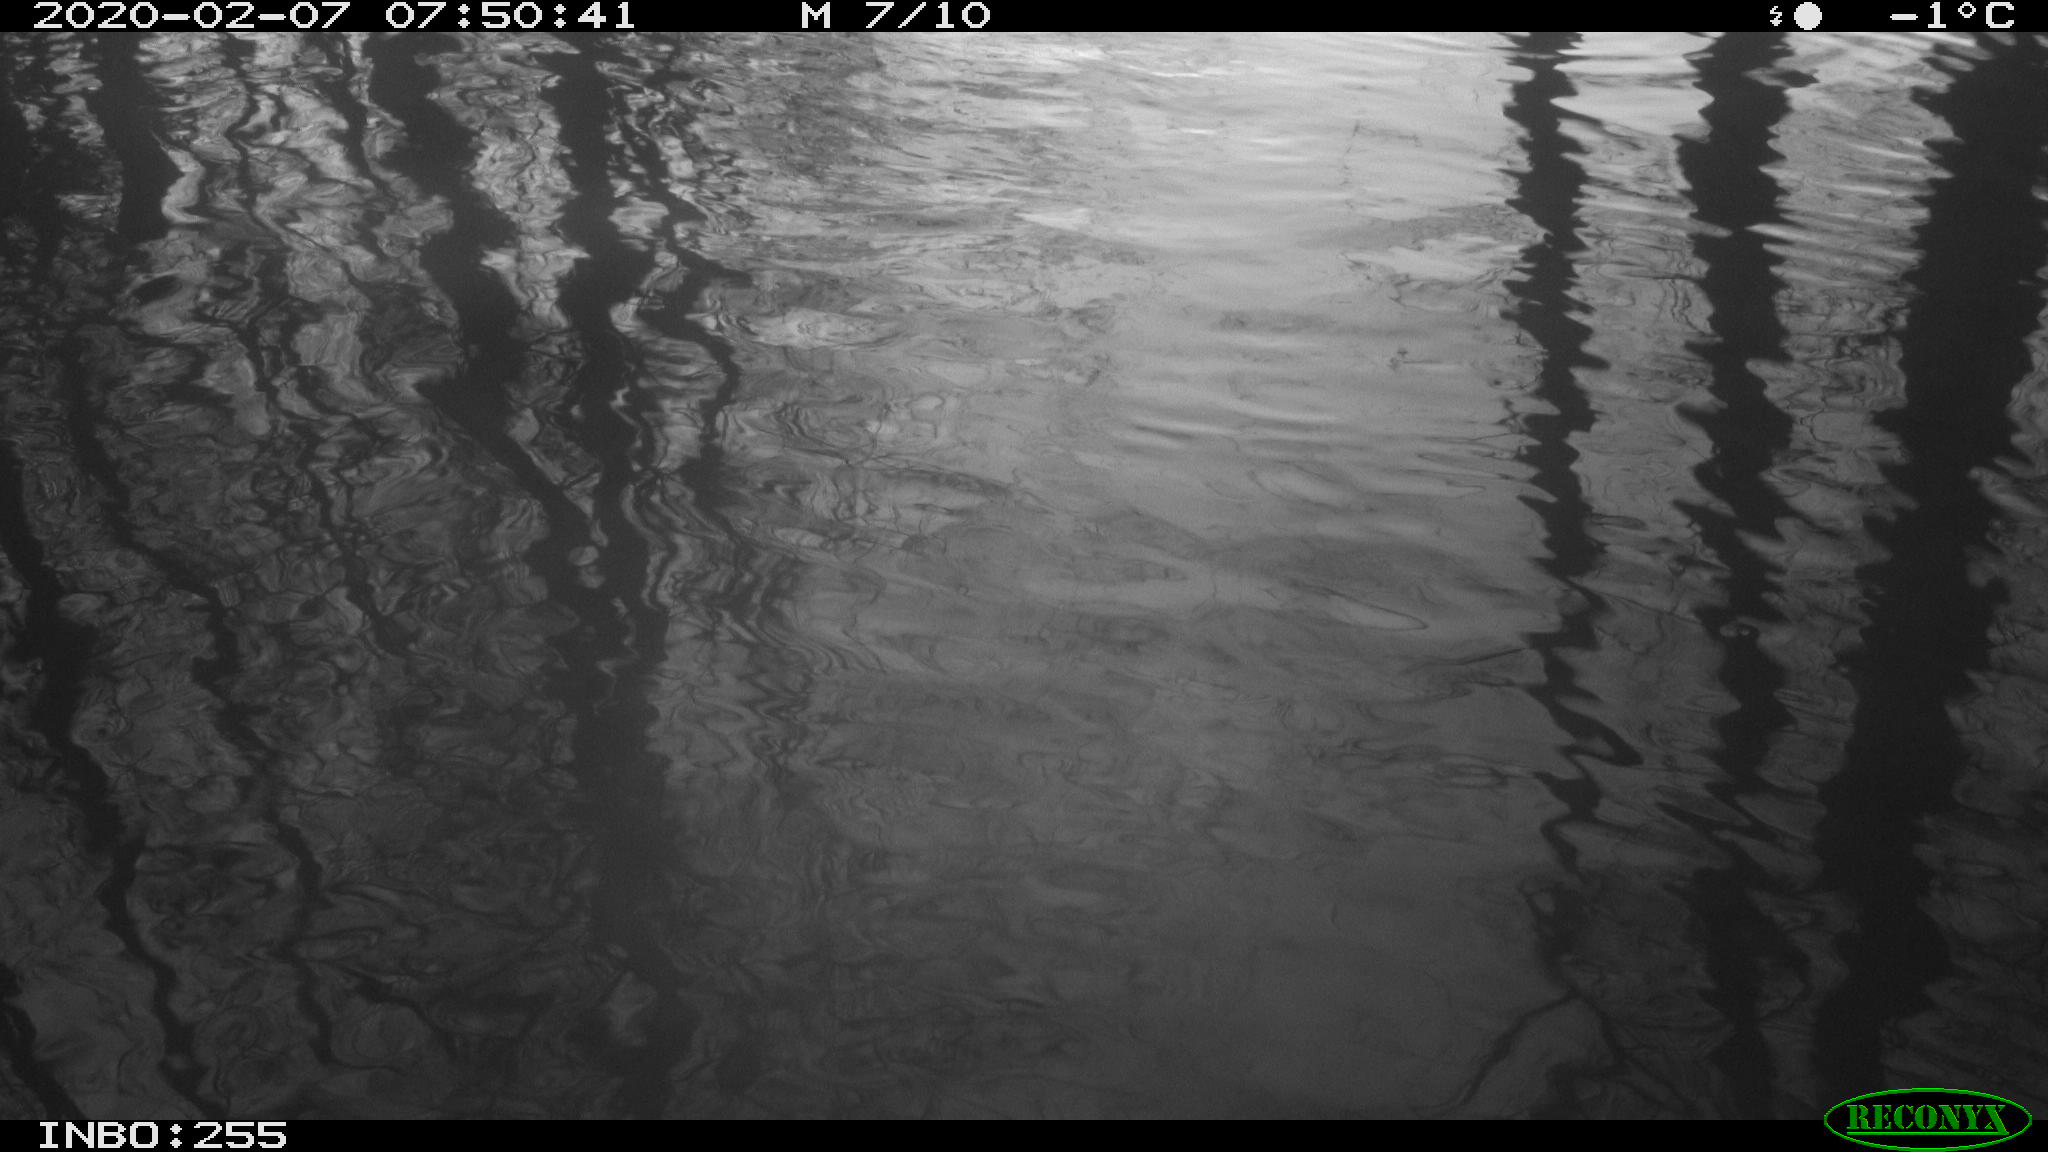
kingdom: Animalia
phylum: Chordata
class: Aves
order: Gruiformes
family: Rallidae
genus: Fulica
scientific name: Fulica atra
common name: Eurasian coot
